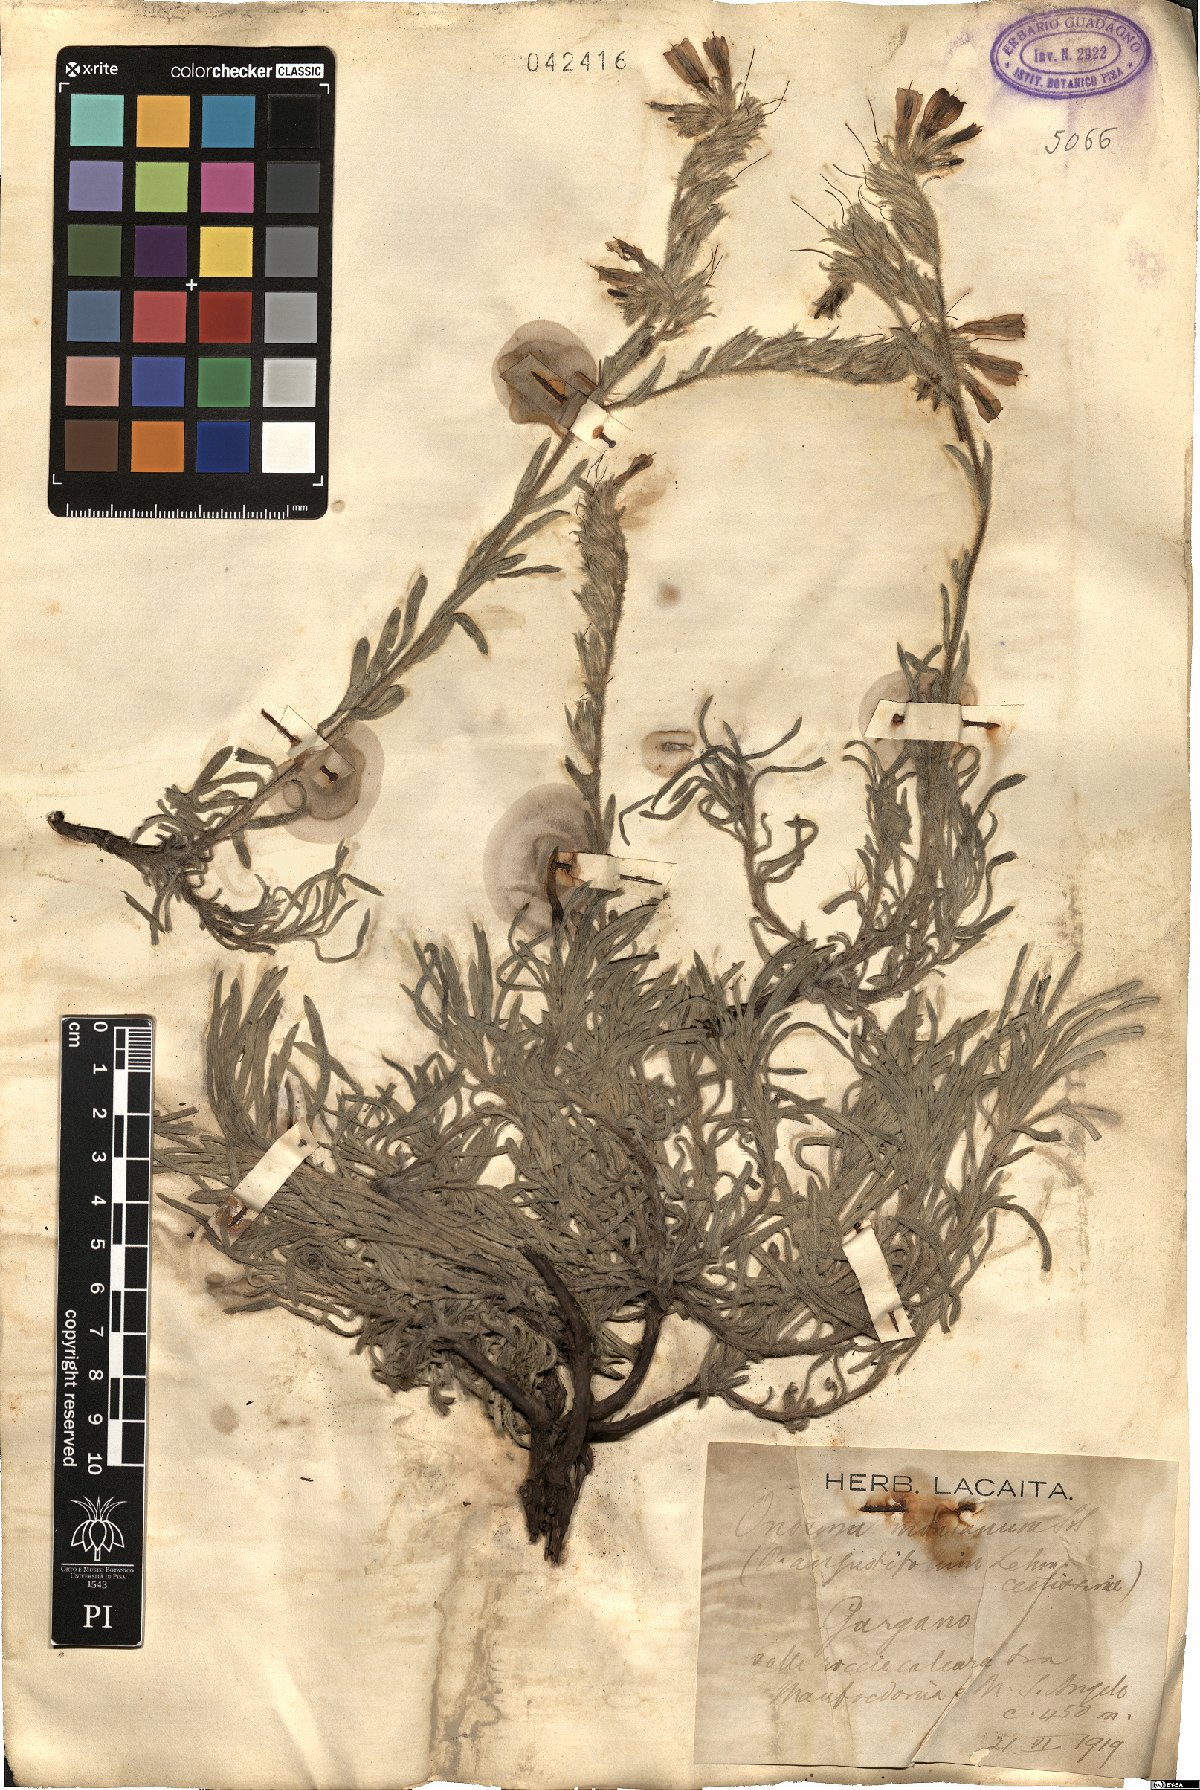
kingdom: Plantae
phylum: Tracheophyta
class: Magnoliopsida
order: Boraginales
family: Boraginaceae
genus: Onosma
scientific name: Onosma montana
